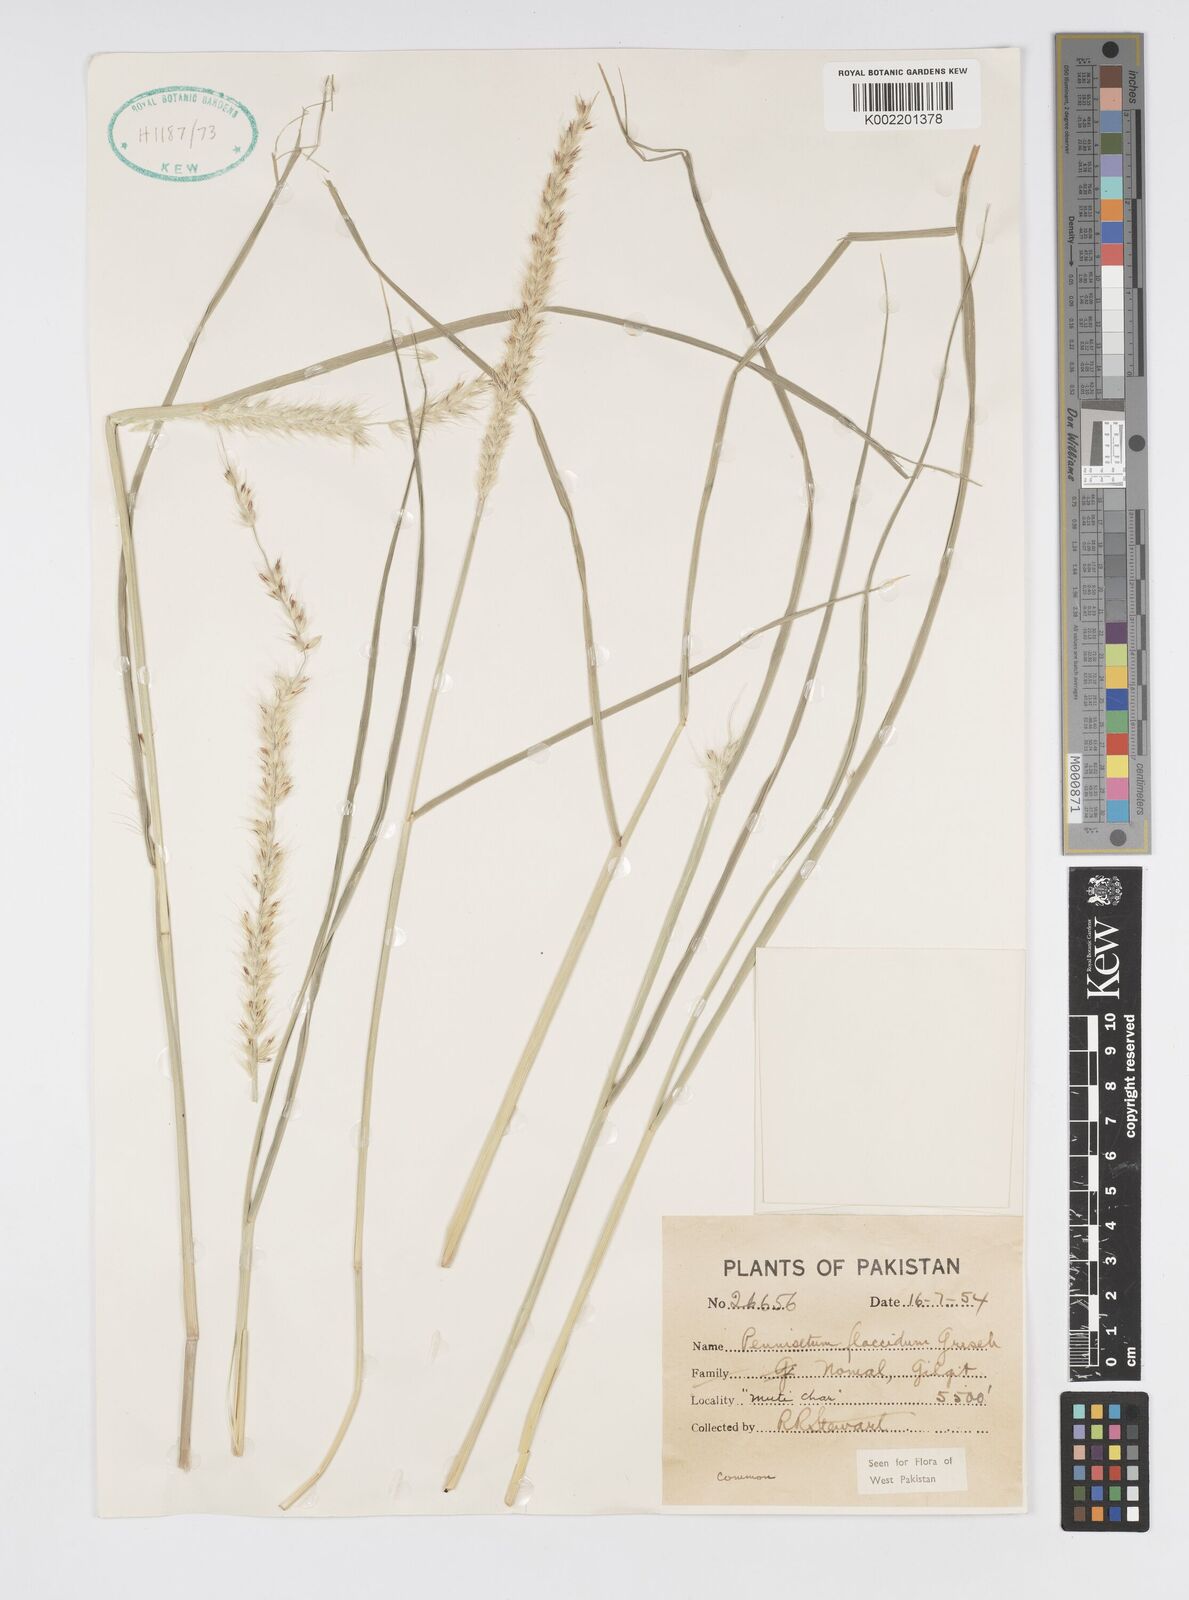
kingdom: Plantae
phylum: Tracheophyta
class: Liliopsida
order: Poales
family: Poaceae
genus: Cenchrus
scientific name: Cenchrus flaccidus
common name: Flaccid grass
